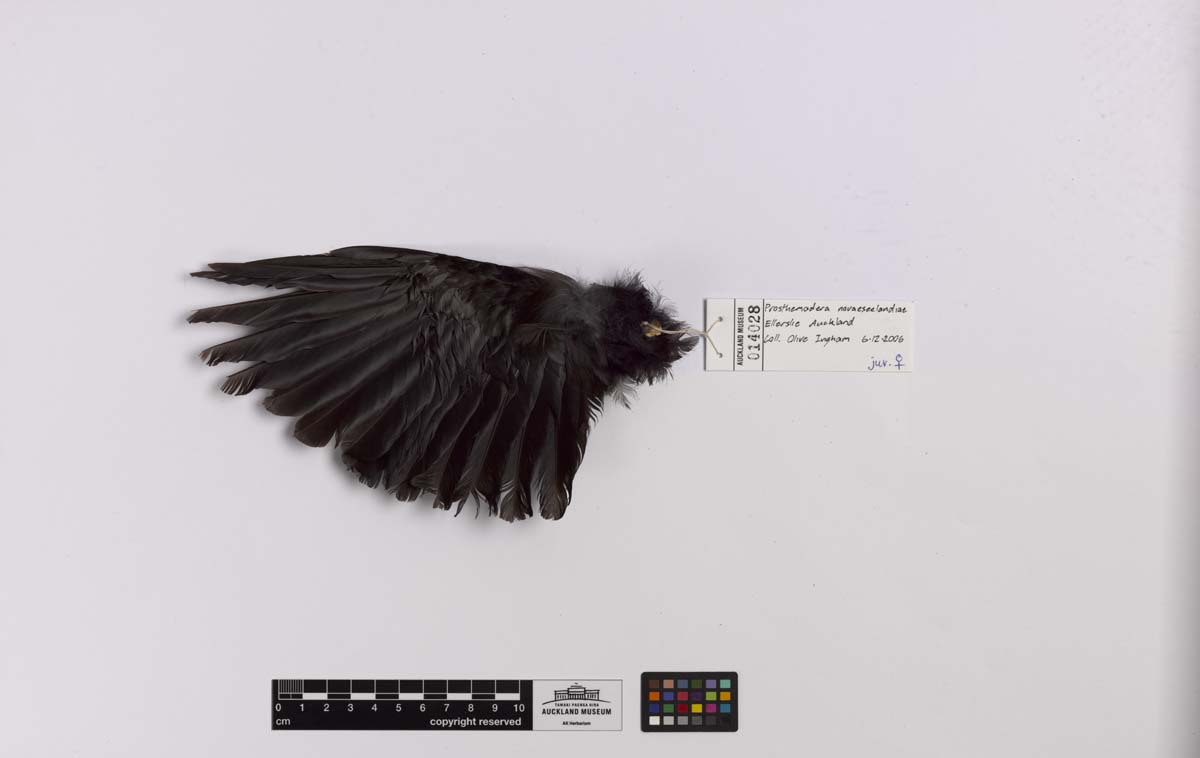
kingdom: Animalia
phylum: Chordata
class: Aves
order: Passeriformes
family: Meliphagidae
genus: Prosthemadera
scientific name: Prosthemadera novaeseelandiae
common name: Tui
